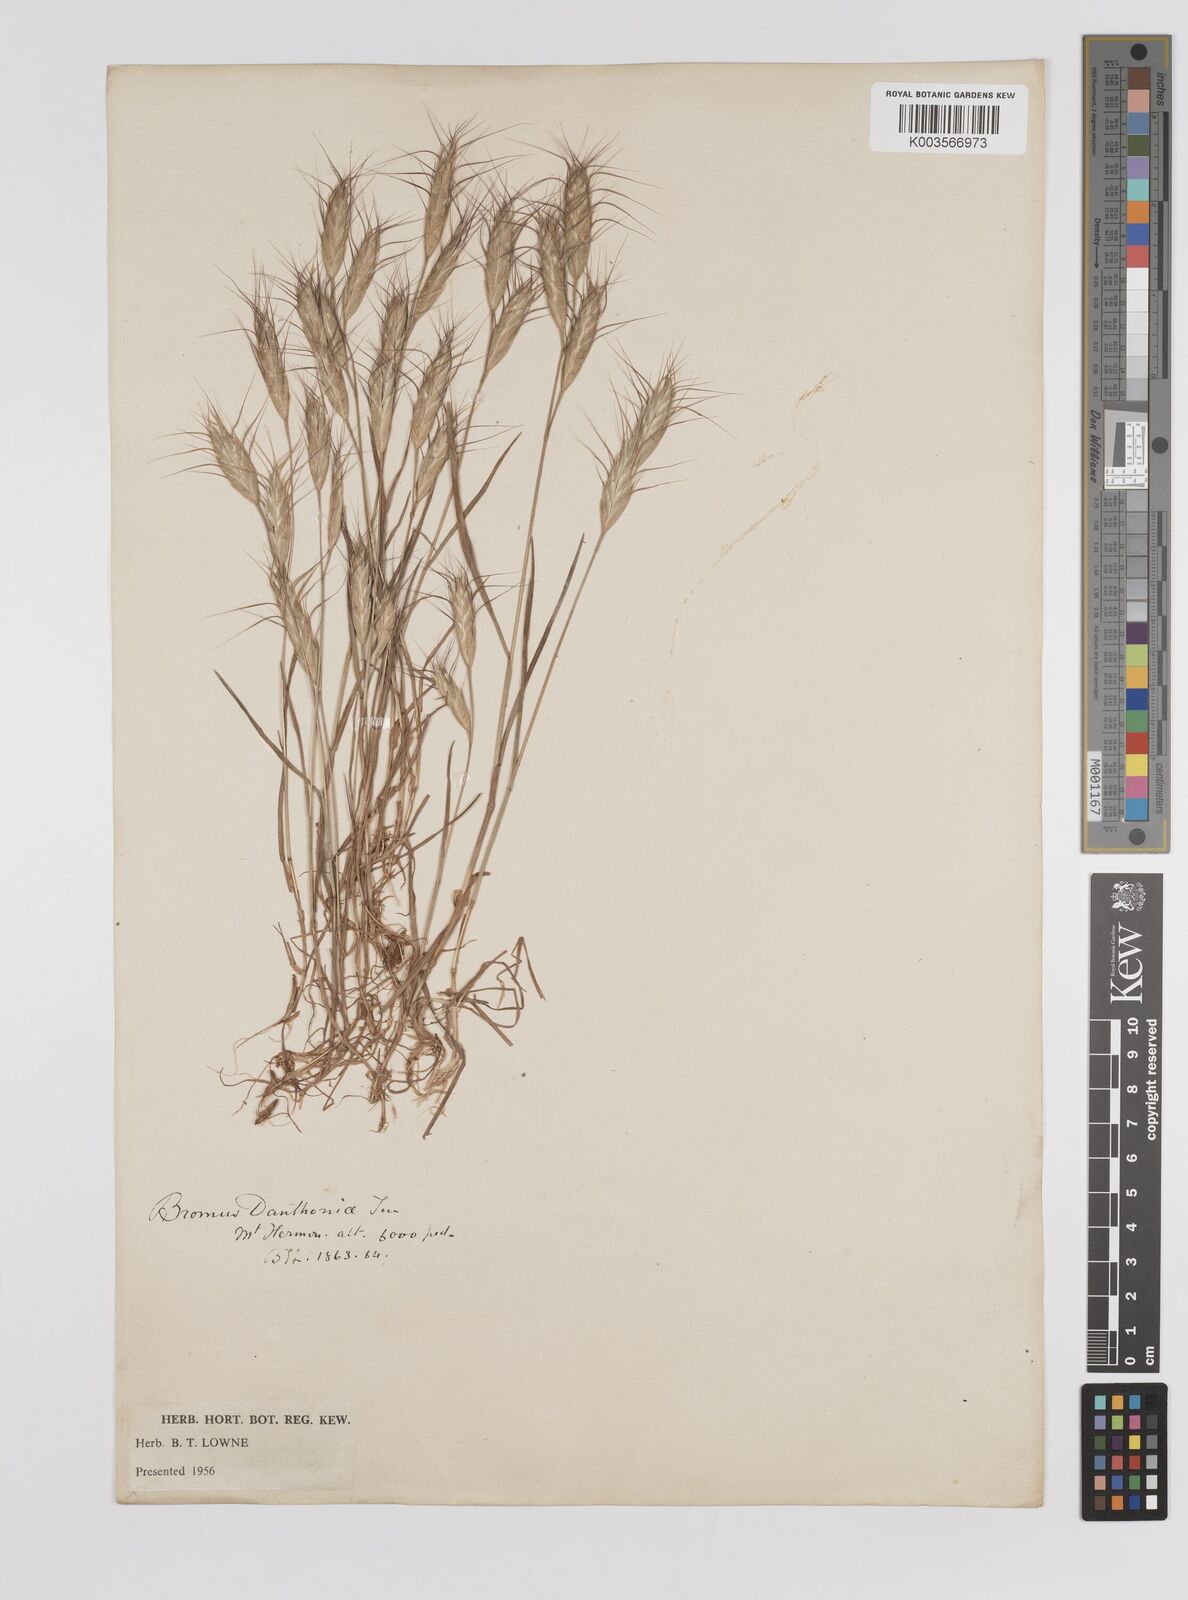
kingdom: Plantae
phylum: Tracheophyta
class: Liliopsida
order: Poales
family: Poaceae
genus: Bromus
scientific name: Bromus danthoniae
